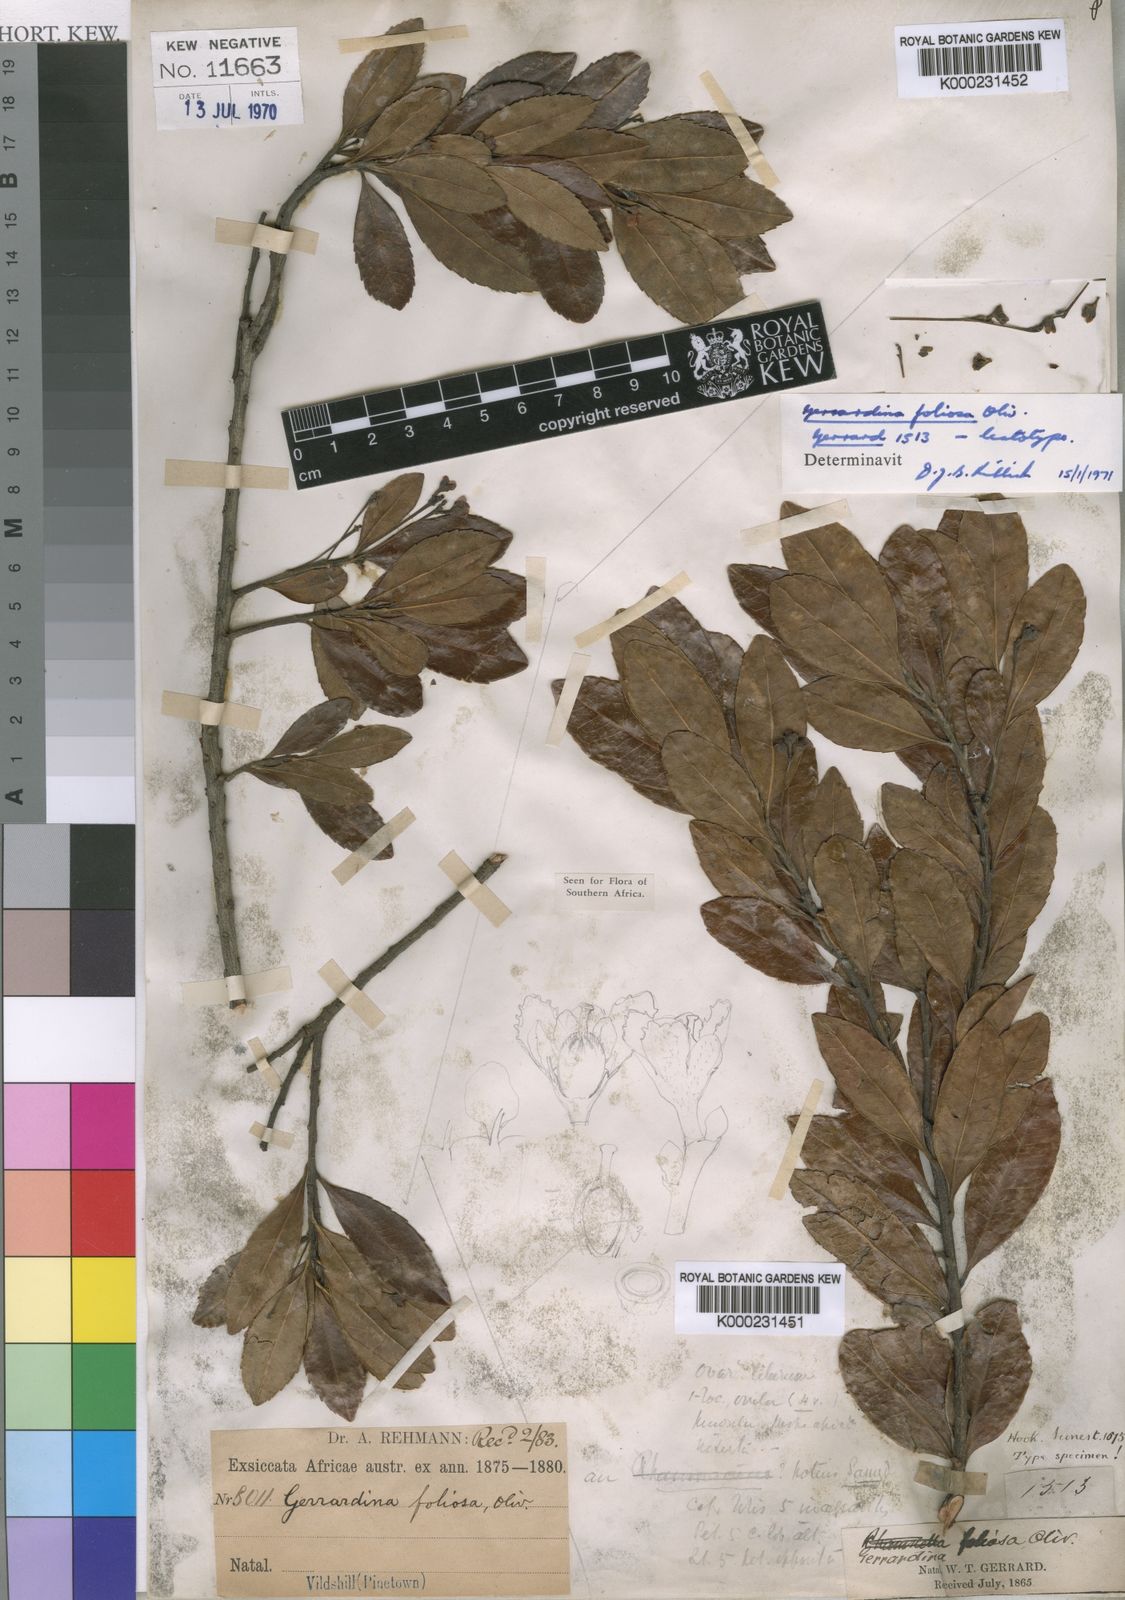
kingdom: Plantae
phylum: Tracheophyta
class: Magnoliopsida
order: Huerteales
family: Gerrardinaceae
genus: Gerrardina
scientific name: Gerrardina foliosa
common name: Krantz-berry
